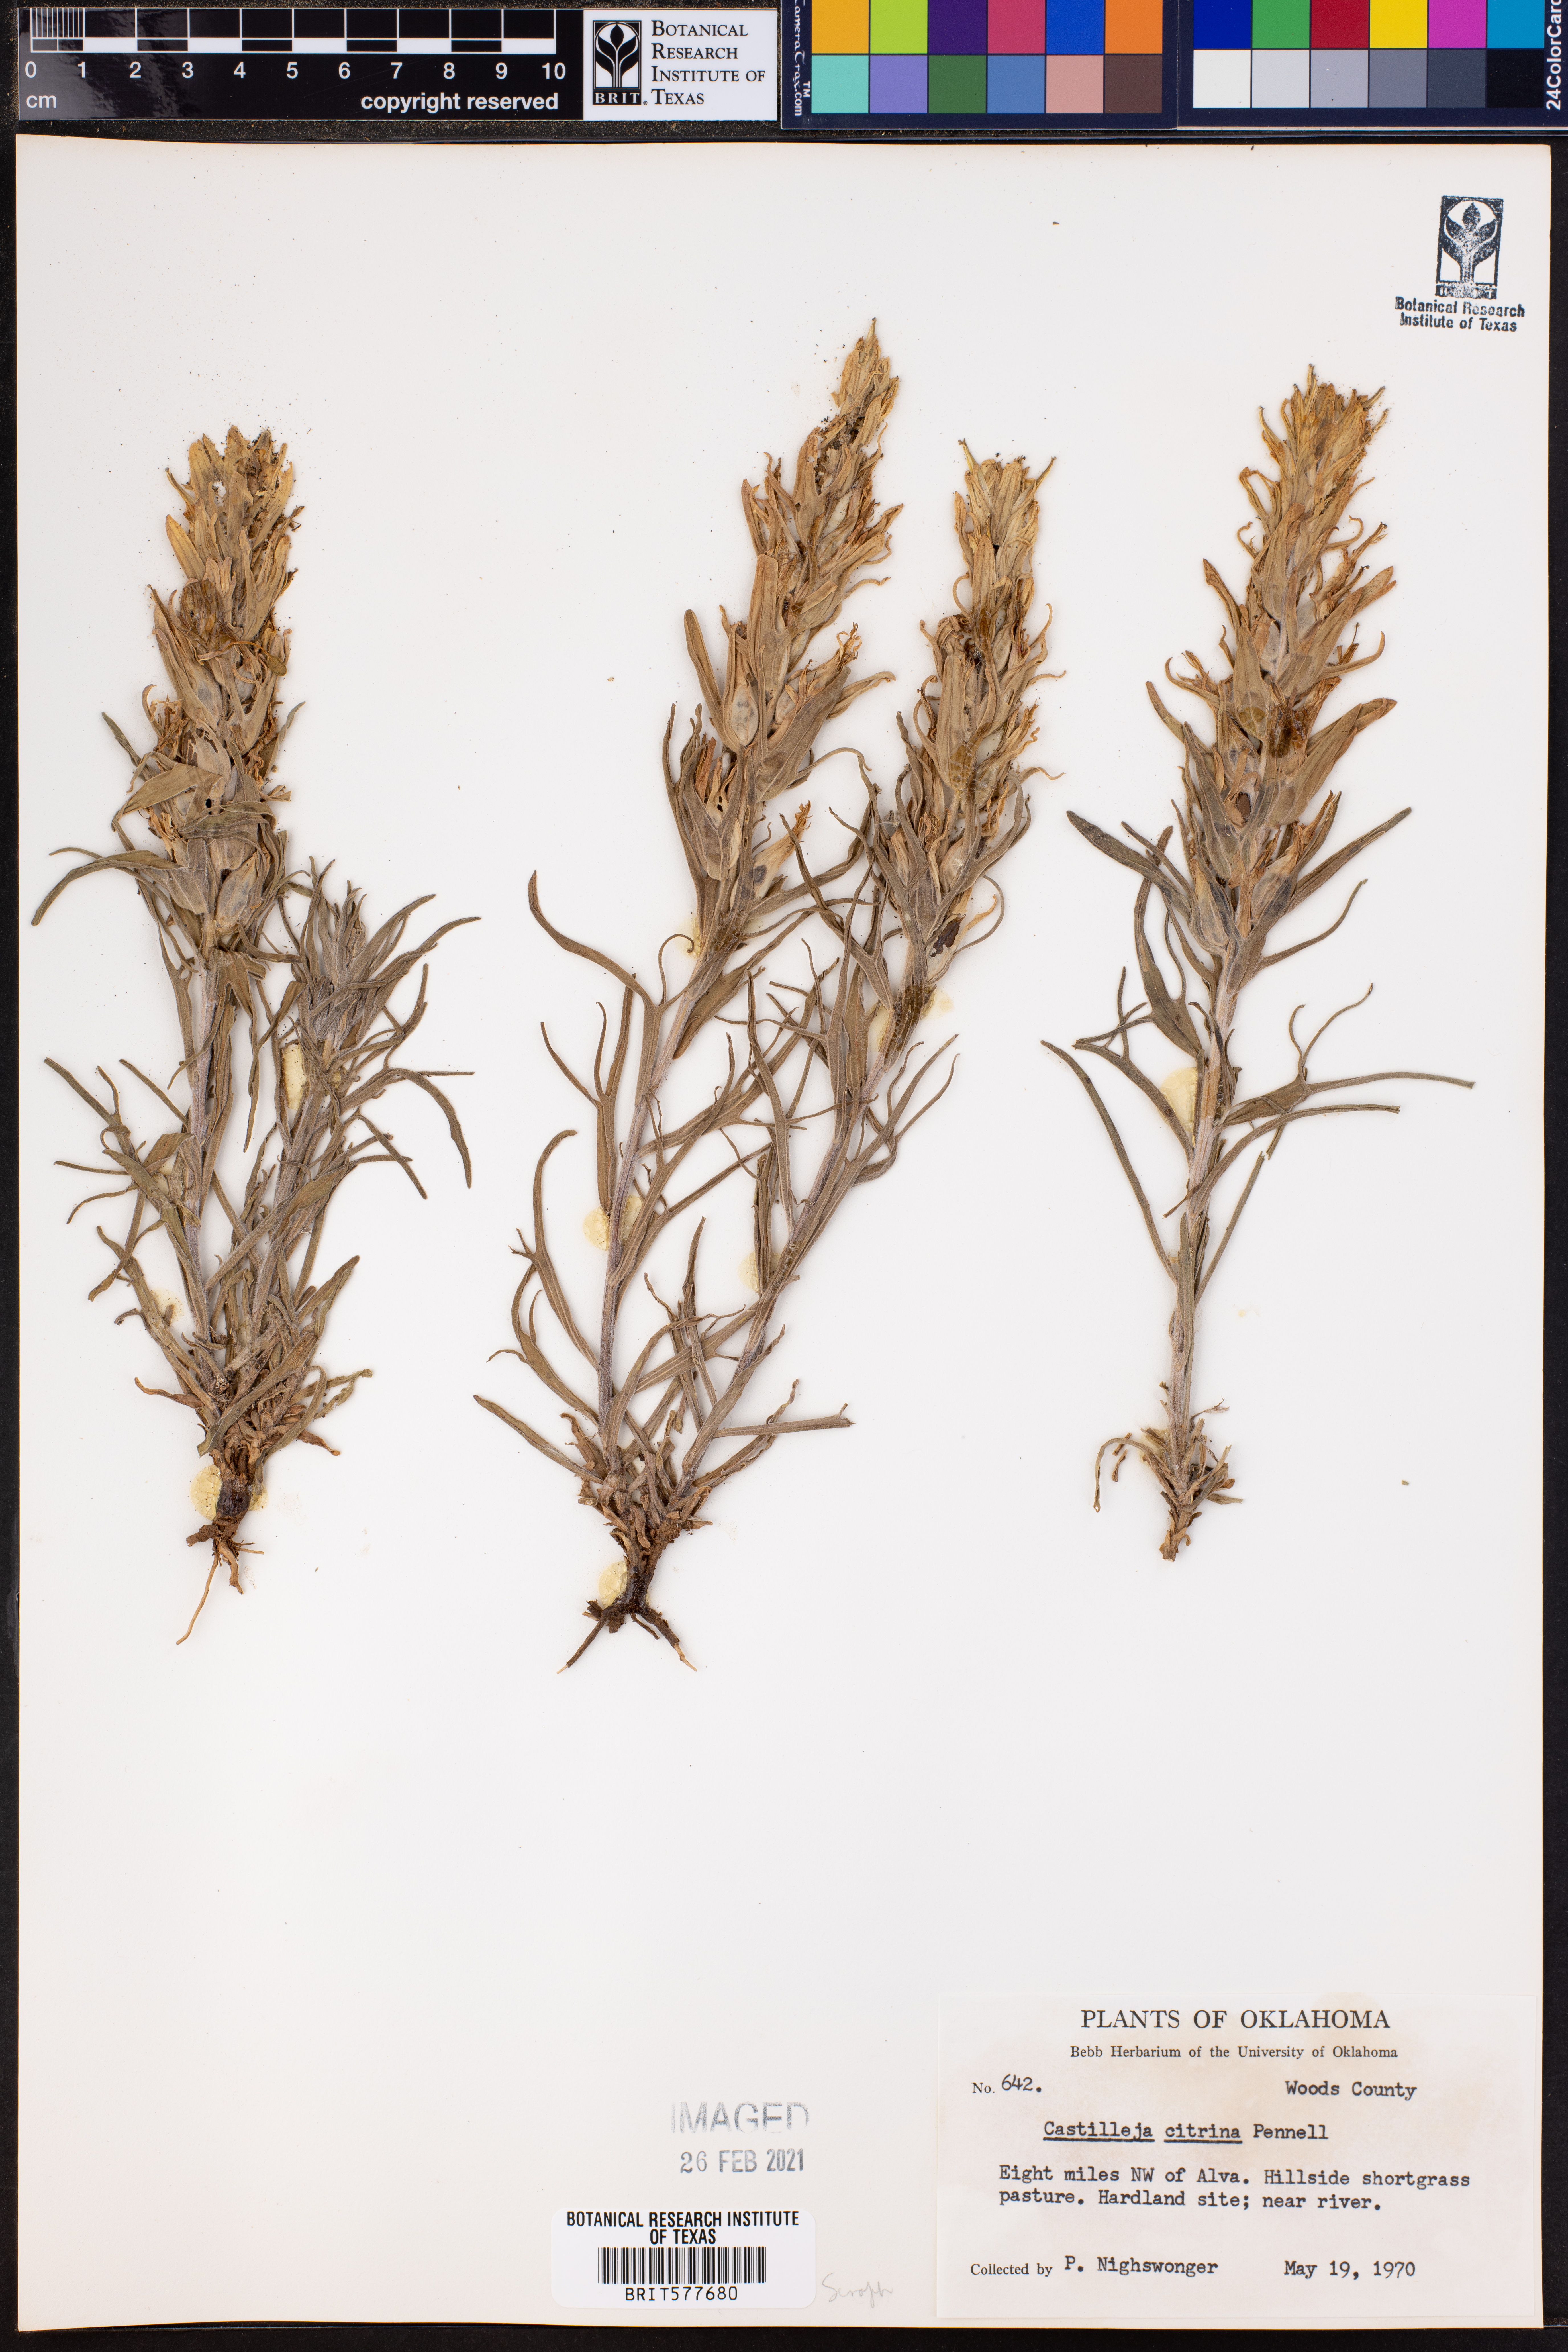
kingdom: Plantae
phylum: Tracheophyta
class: Magnoliopsida
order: Lamiales
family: Orobanchaceae
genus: Castilleja
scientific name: Castilleja citrina
